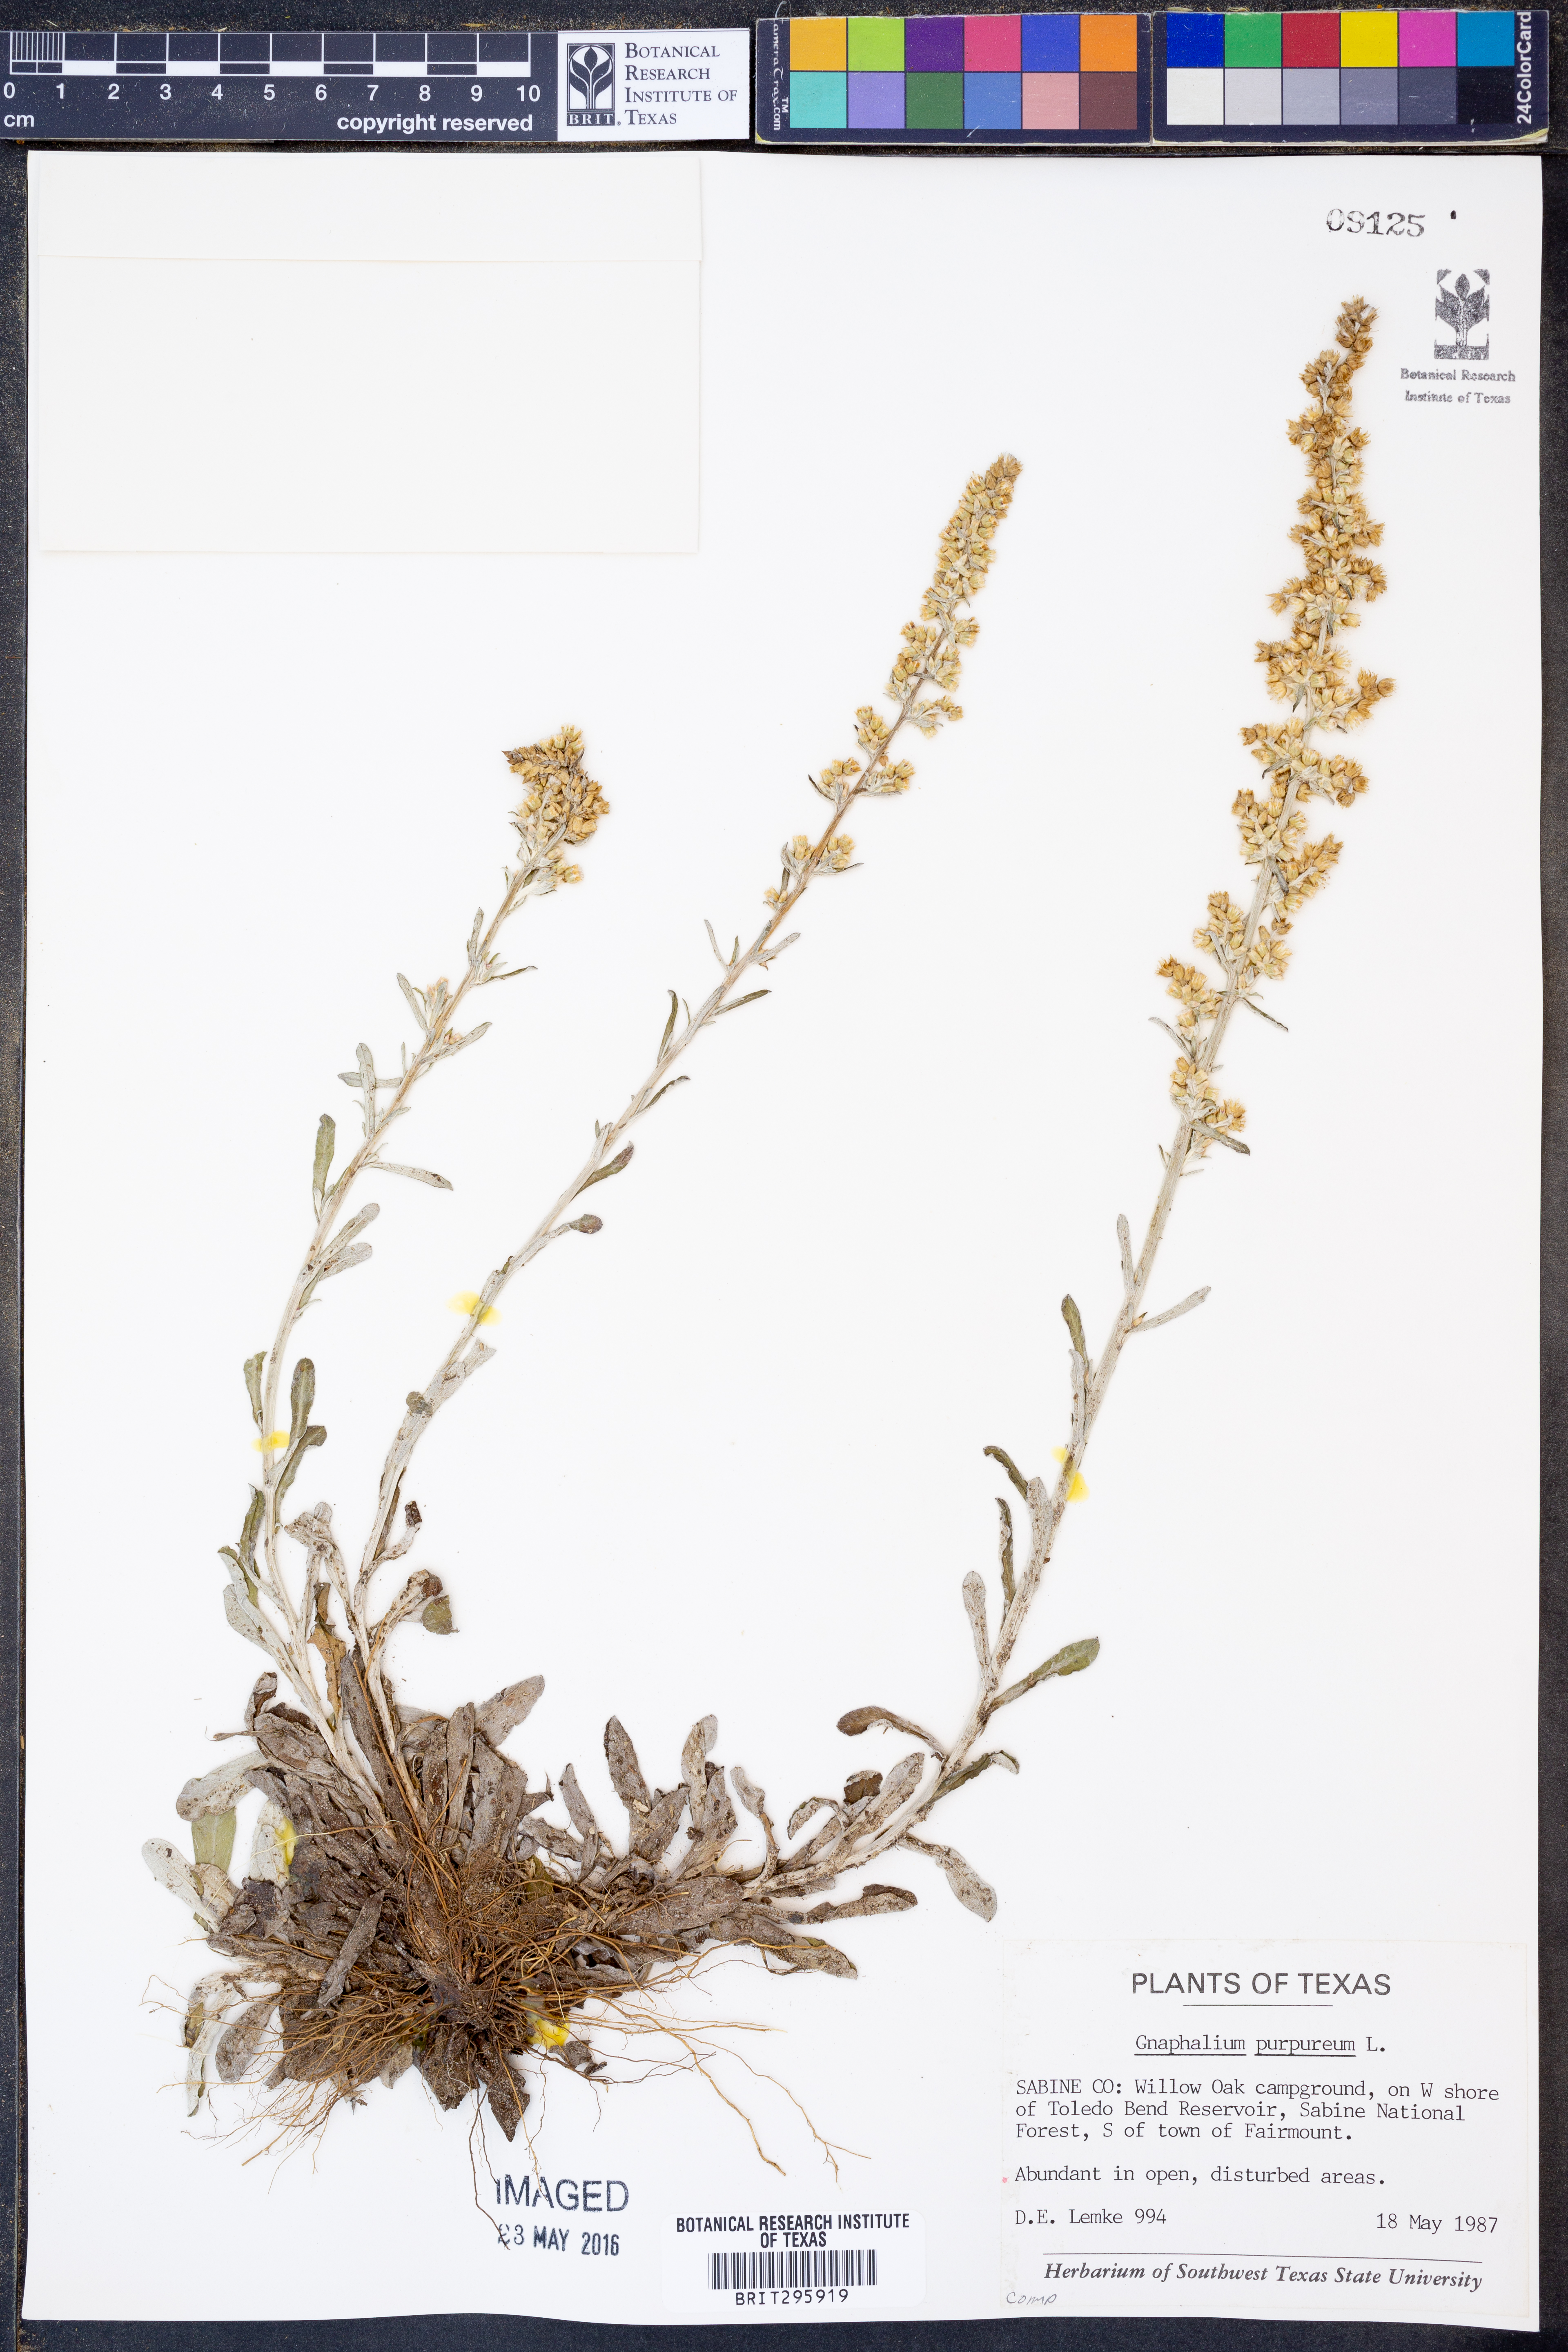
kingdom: Plantae
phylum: Tracheophyta
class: Magnoliopsida
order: Asterales
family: Asteraceae
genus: Gamochaeta
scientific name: Gamochaeta purpurea
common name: Purple cudweed
